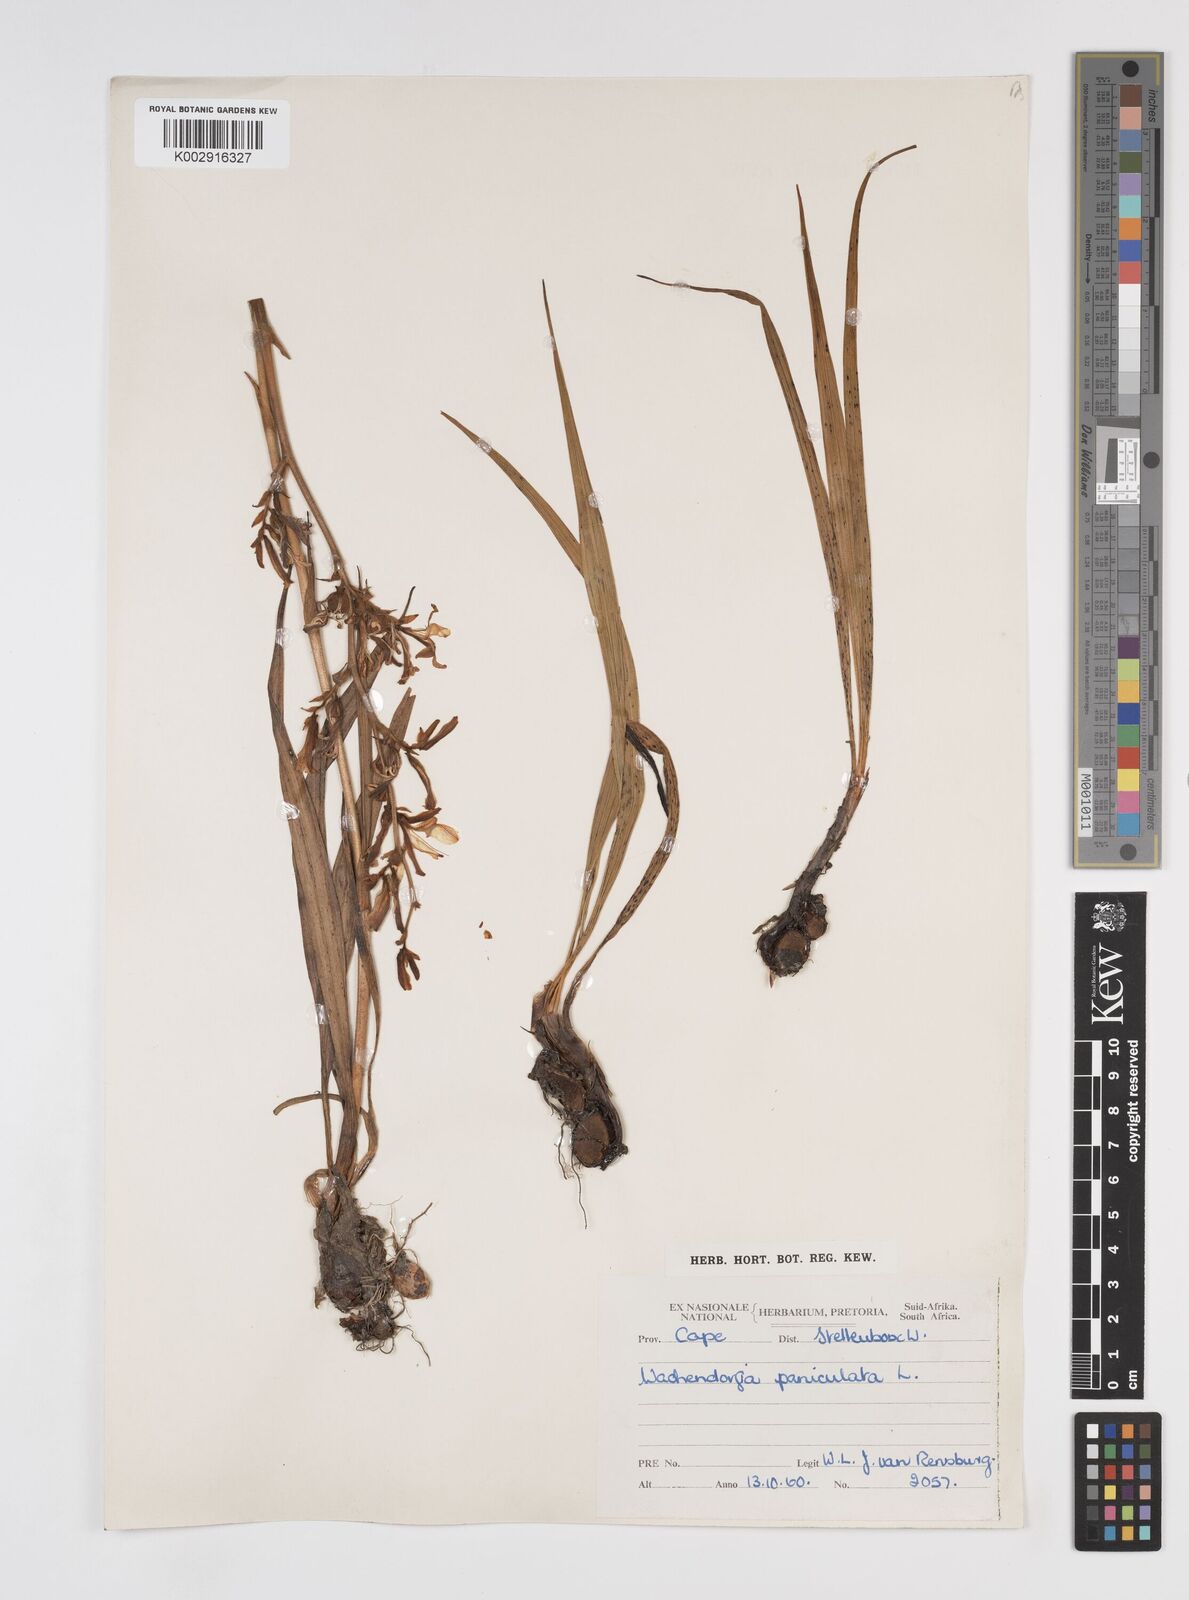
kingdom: Plantae
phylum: Tracheophyta
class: Liliopsida
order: Commelinales
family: Haemodoraceae
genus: Wachendorfia
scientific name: Wachendorfia paniculata
